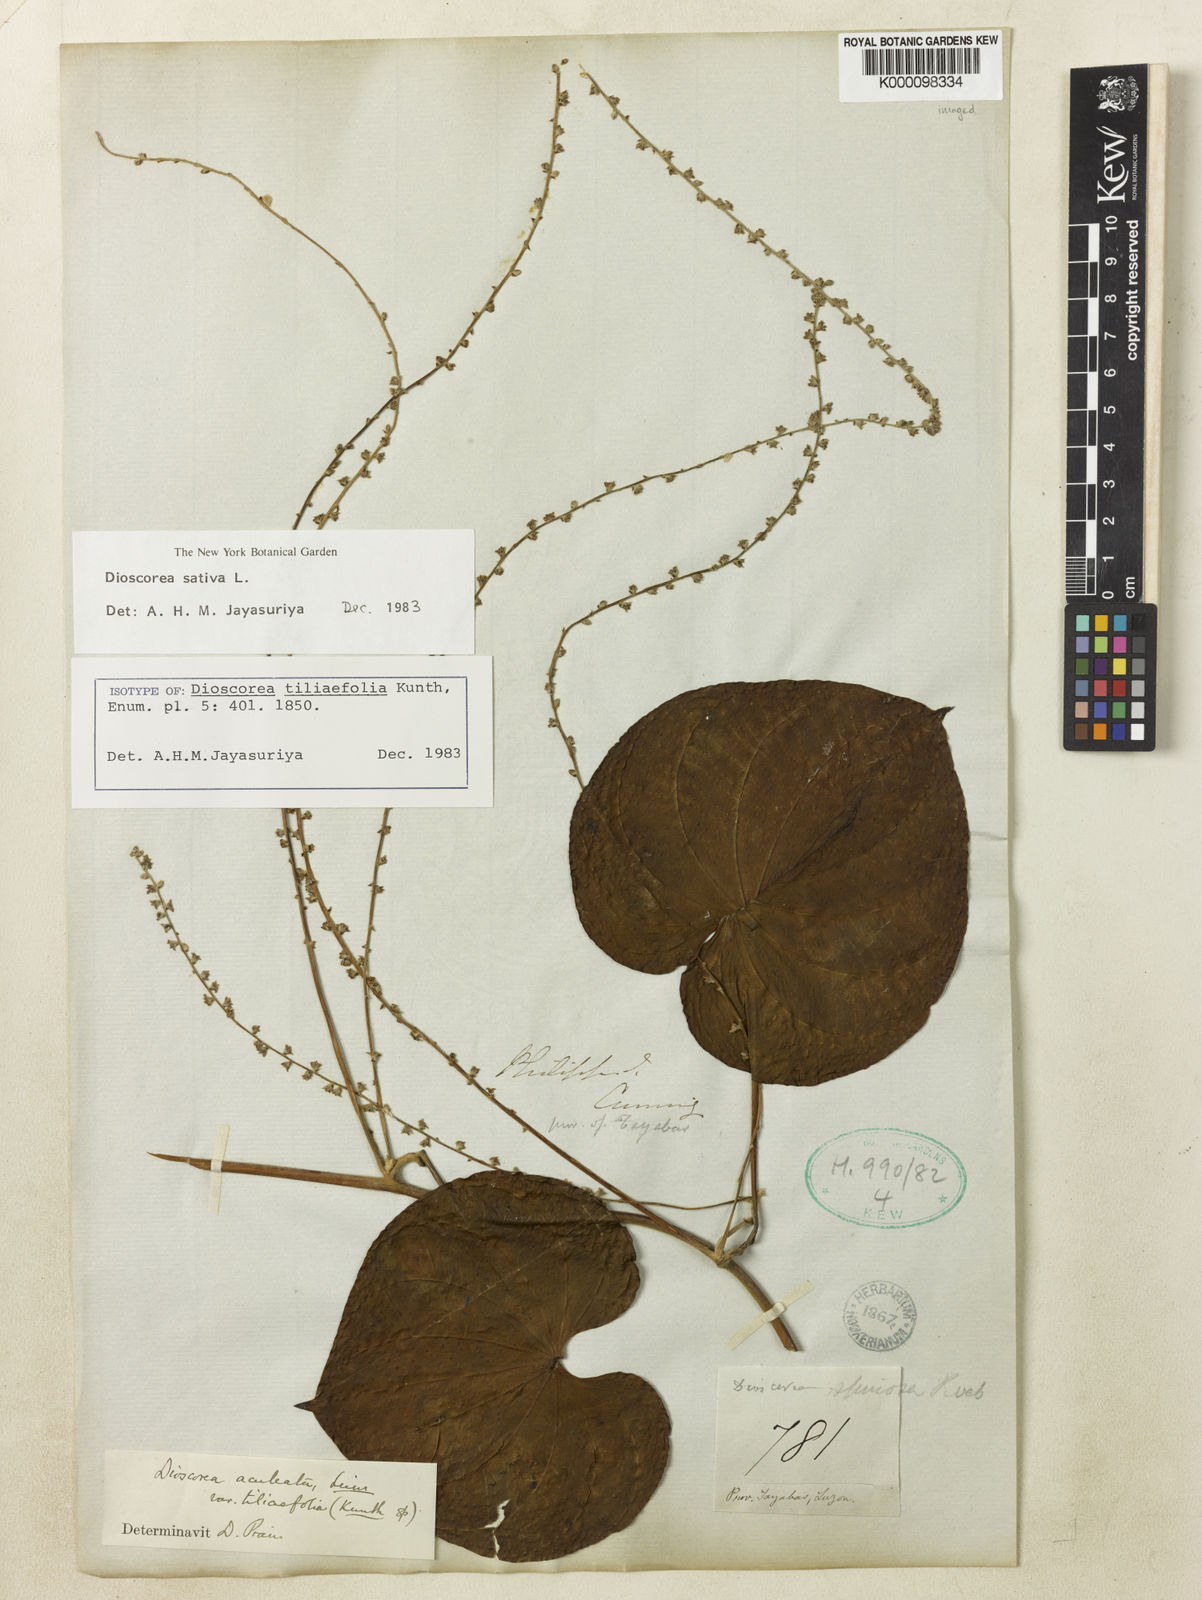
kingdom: Plantae
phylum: Tracheophyta
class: Liliopsida
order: Dioscoreales
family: Dioscoreaceae
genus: Dioscorea
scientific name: Dioscorea esculenta
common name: Chinese yam
